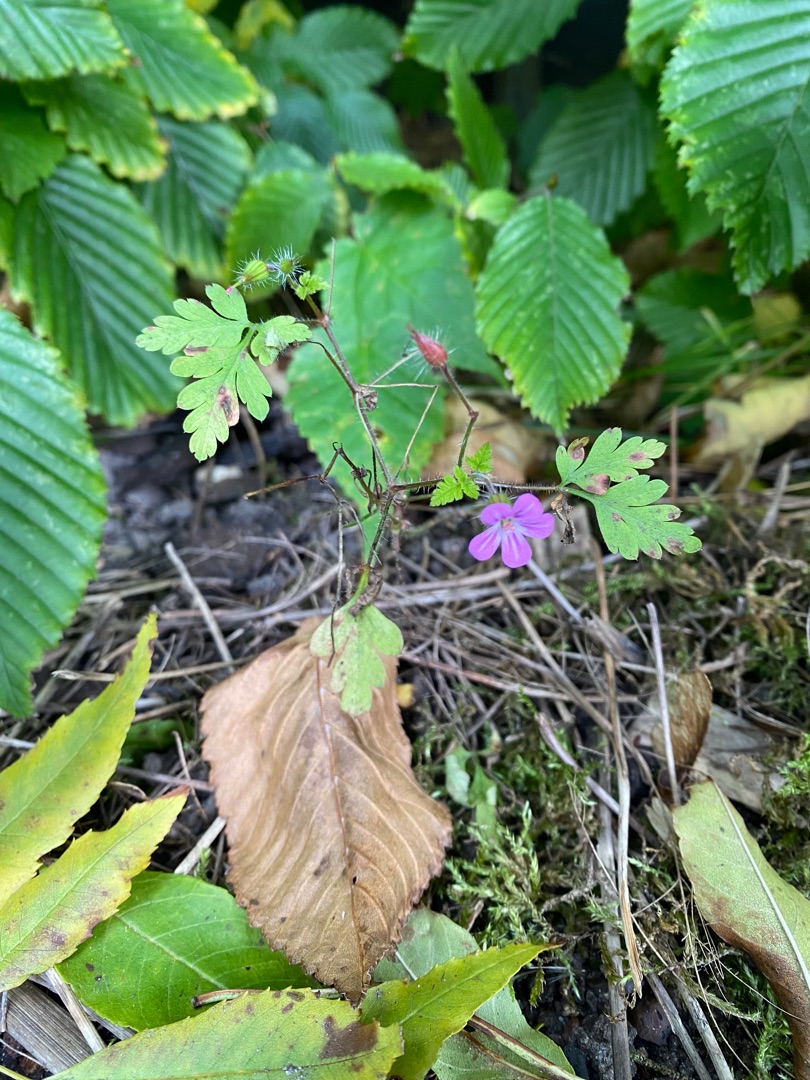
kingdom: Plantae
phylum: Tracheophyta
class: Magnoliopsida
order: Geraniales
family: Geraniaceae
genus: Geranium
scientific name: Geranium robertianum
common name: Stinkende storkenæb
